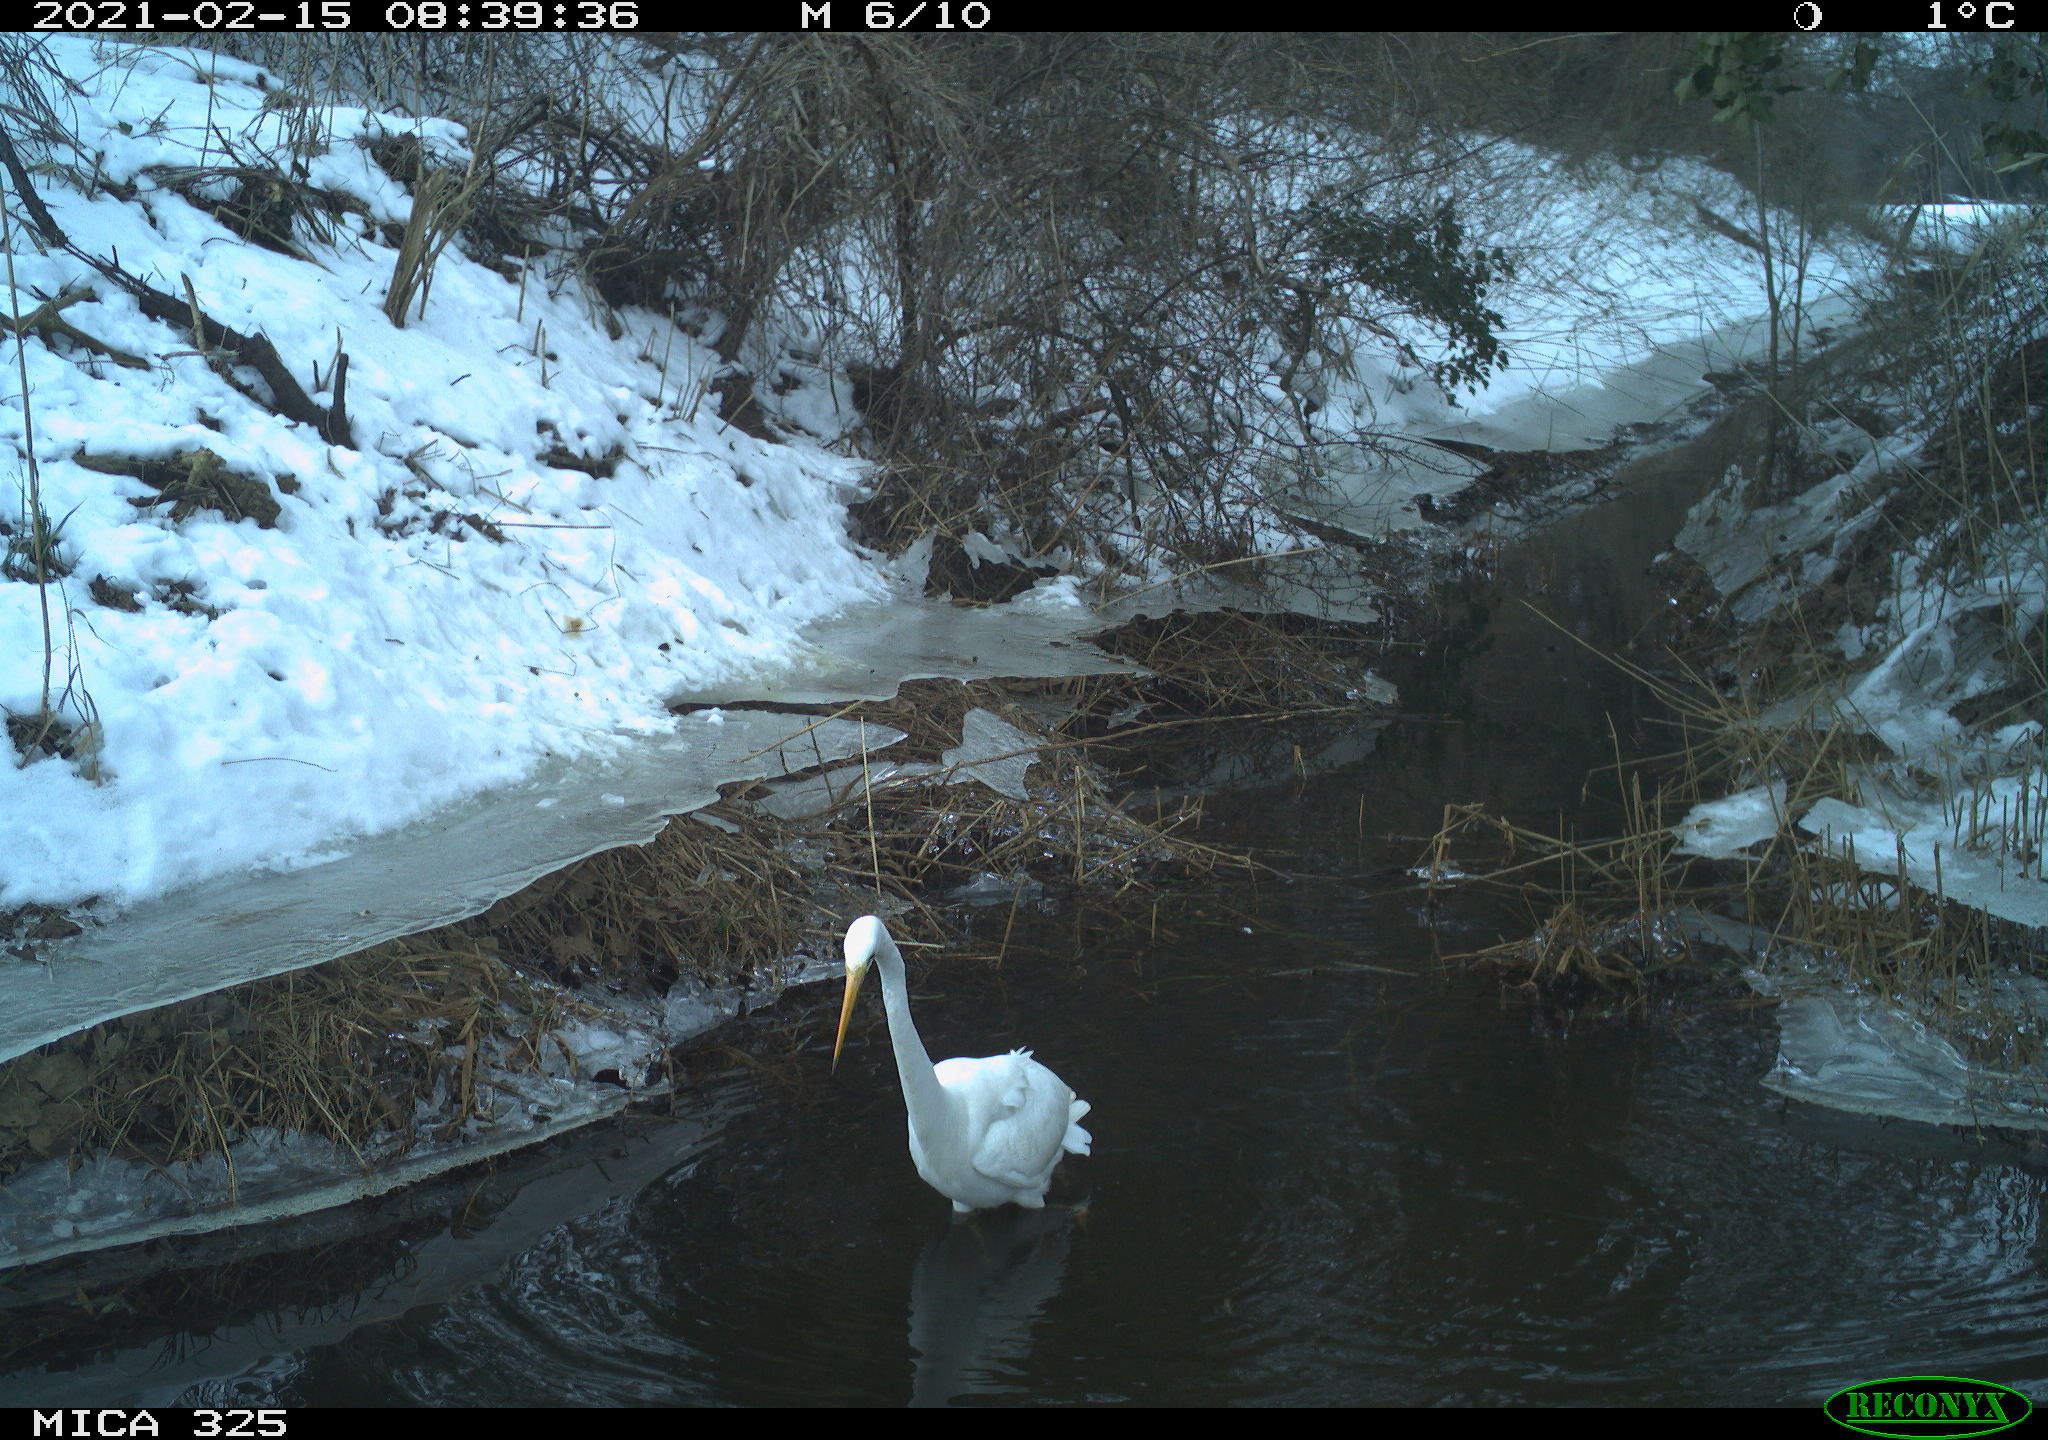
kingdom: Animalia
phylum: Chordata
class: Aves
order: Pelecaniformes
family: Ardeidae
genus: Ardea
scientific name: Ardea alba
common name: Great egret
